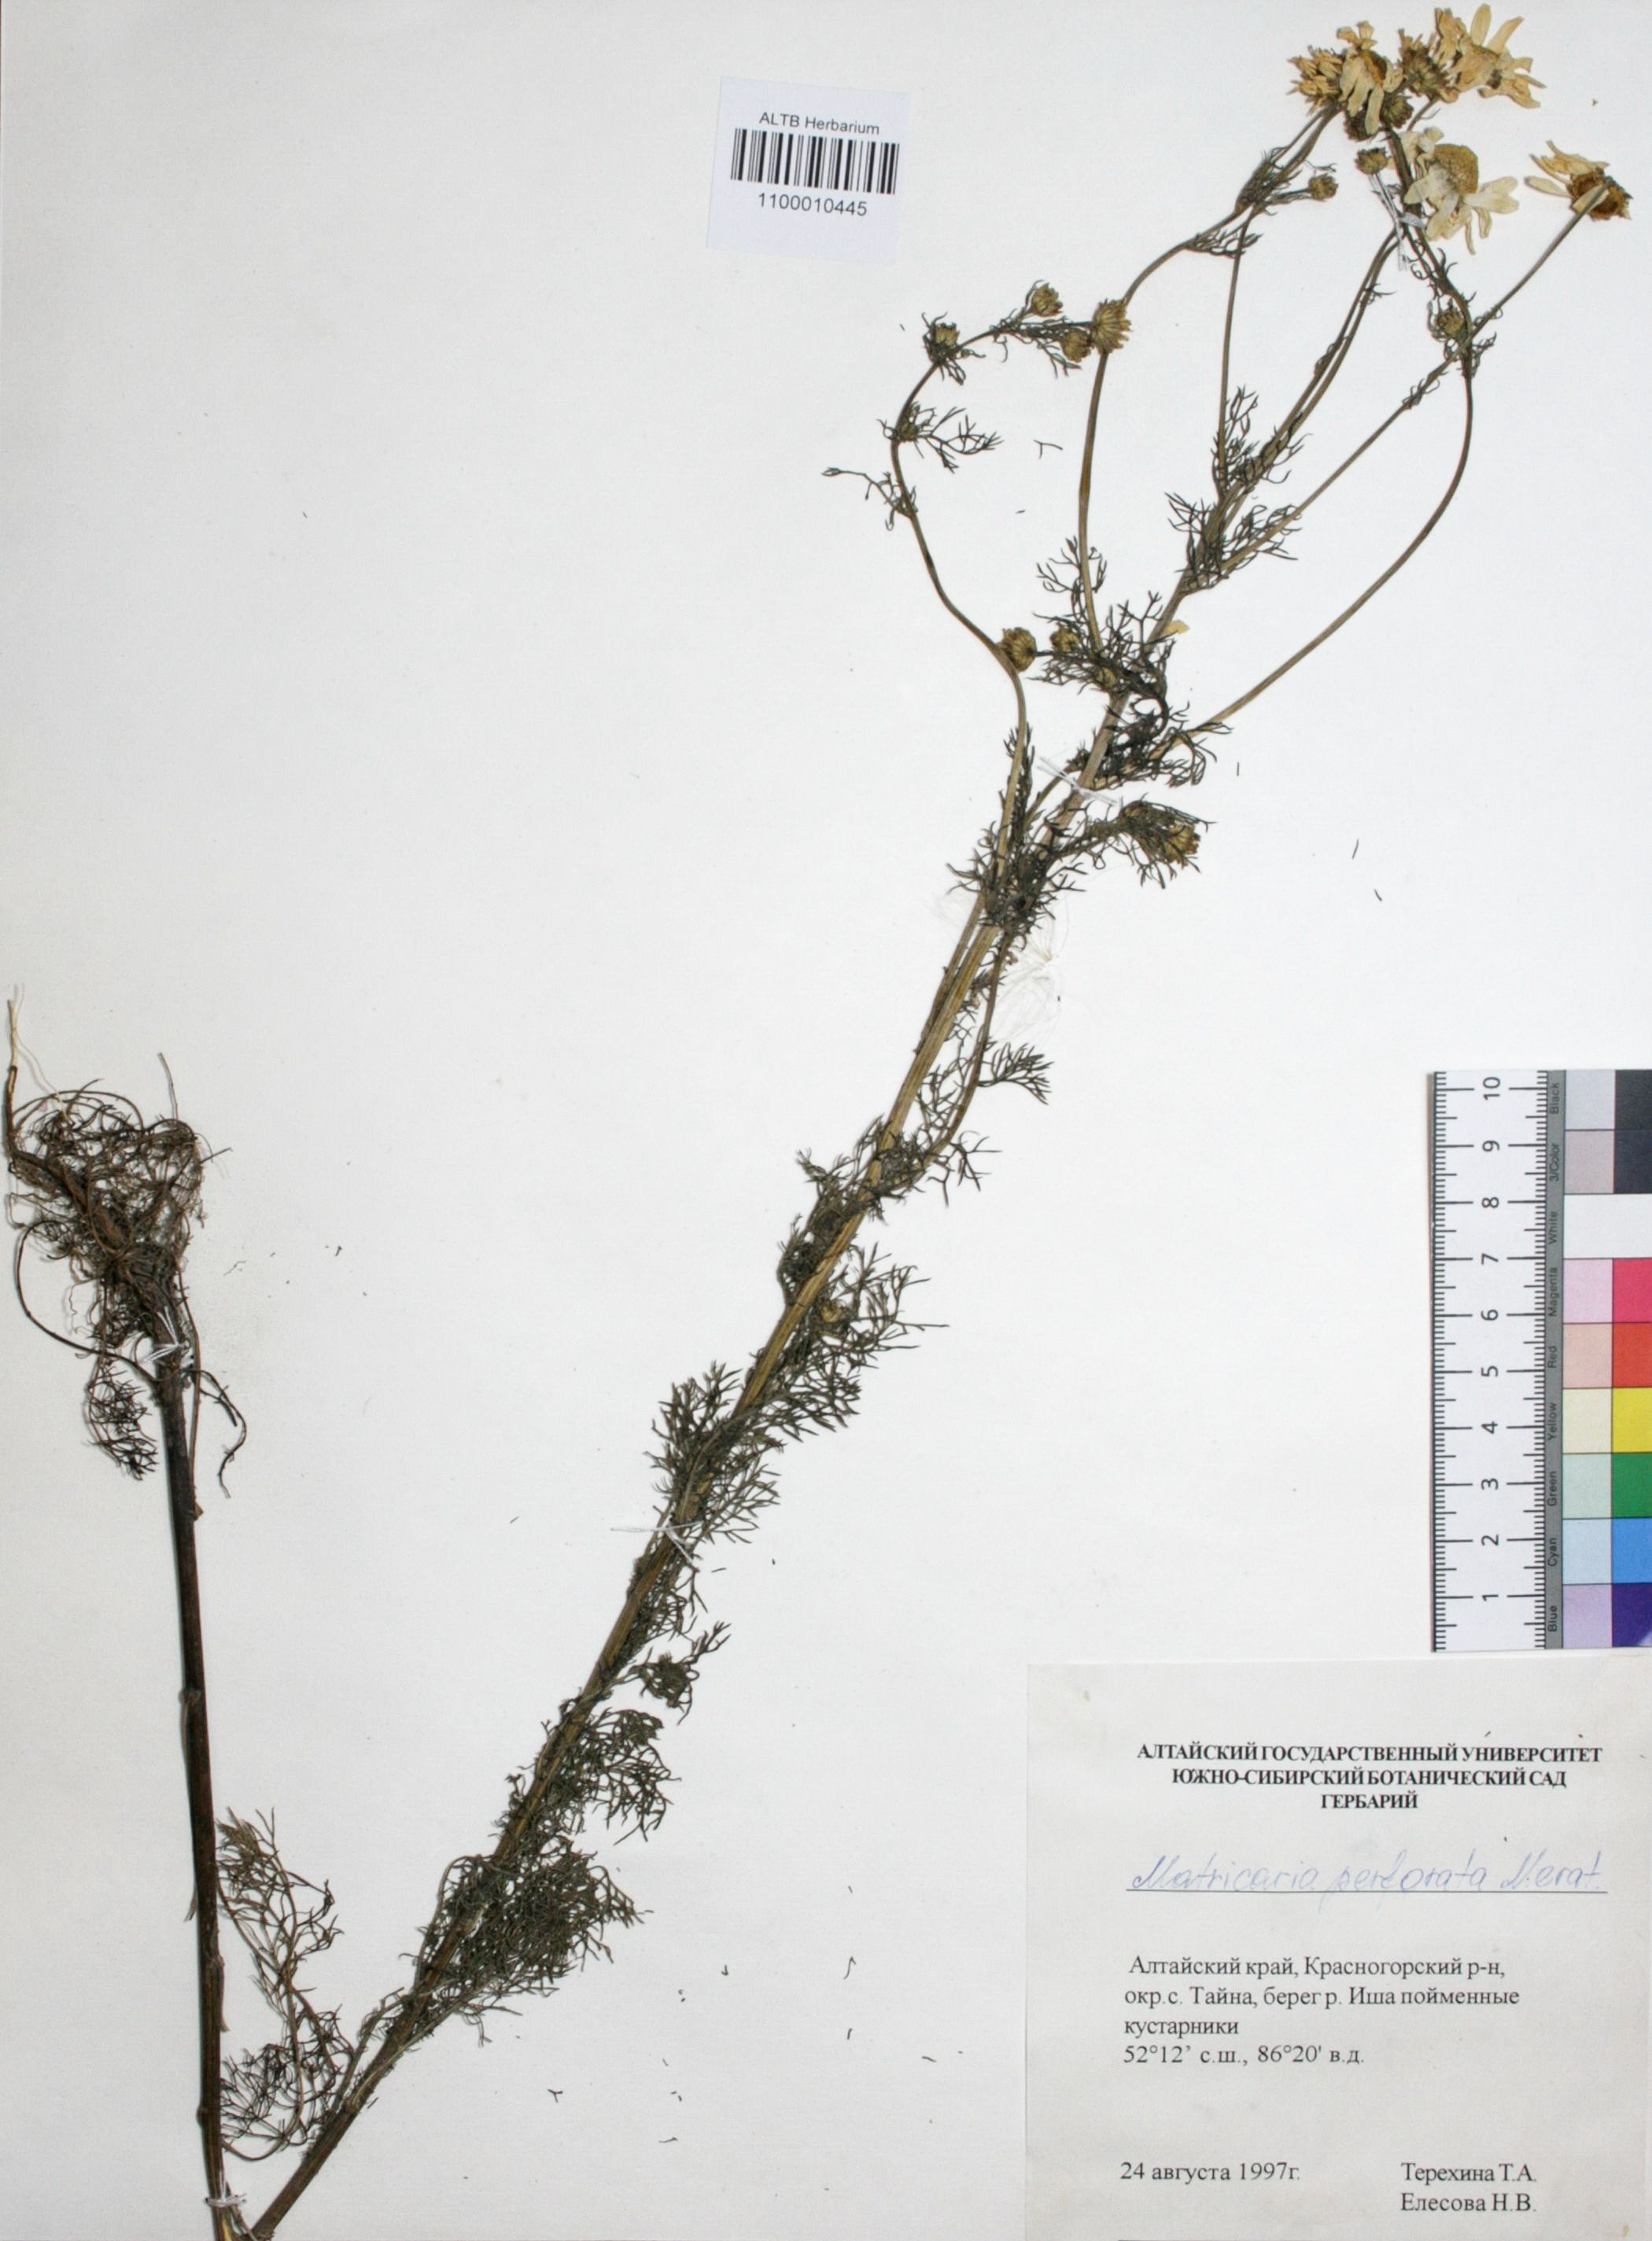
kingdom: Plantae
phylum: Tracheophyta
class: Magnoliopsida
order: Asterales
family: Asteraceae
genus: Tripleurospermum
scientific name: Tripleurospermum inodorum
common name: Scentless mayweed
